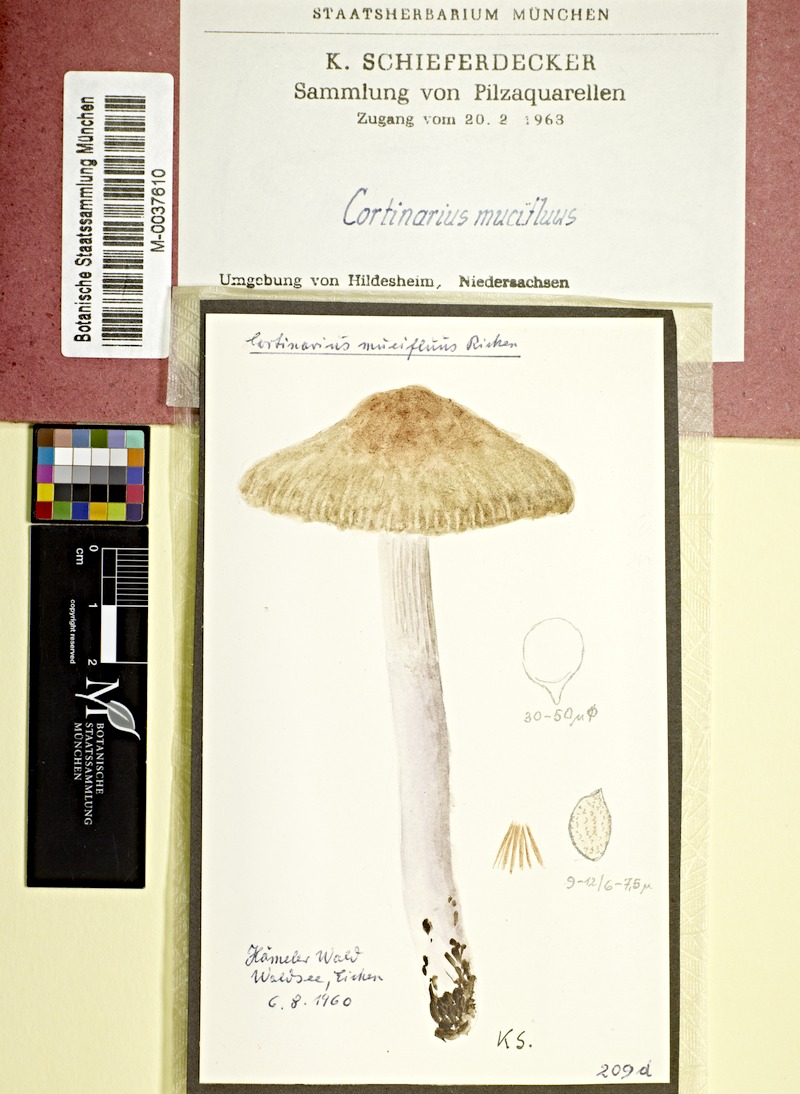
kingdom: Fungi
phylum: Basidiomycota
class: Agaricomycetes
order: Agaricales
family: Cortinariaceae
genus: Cortinarius
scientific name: Cortinarius integerrimus
